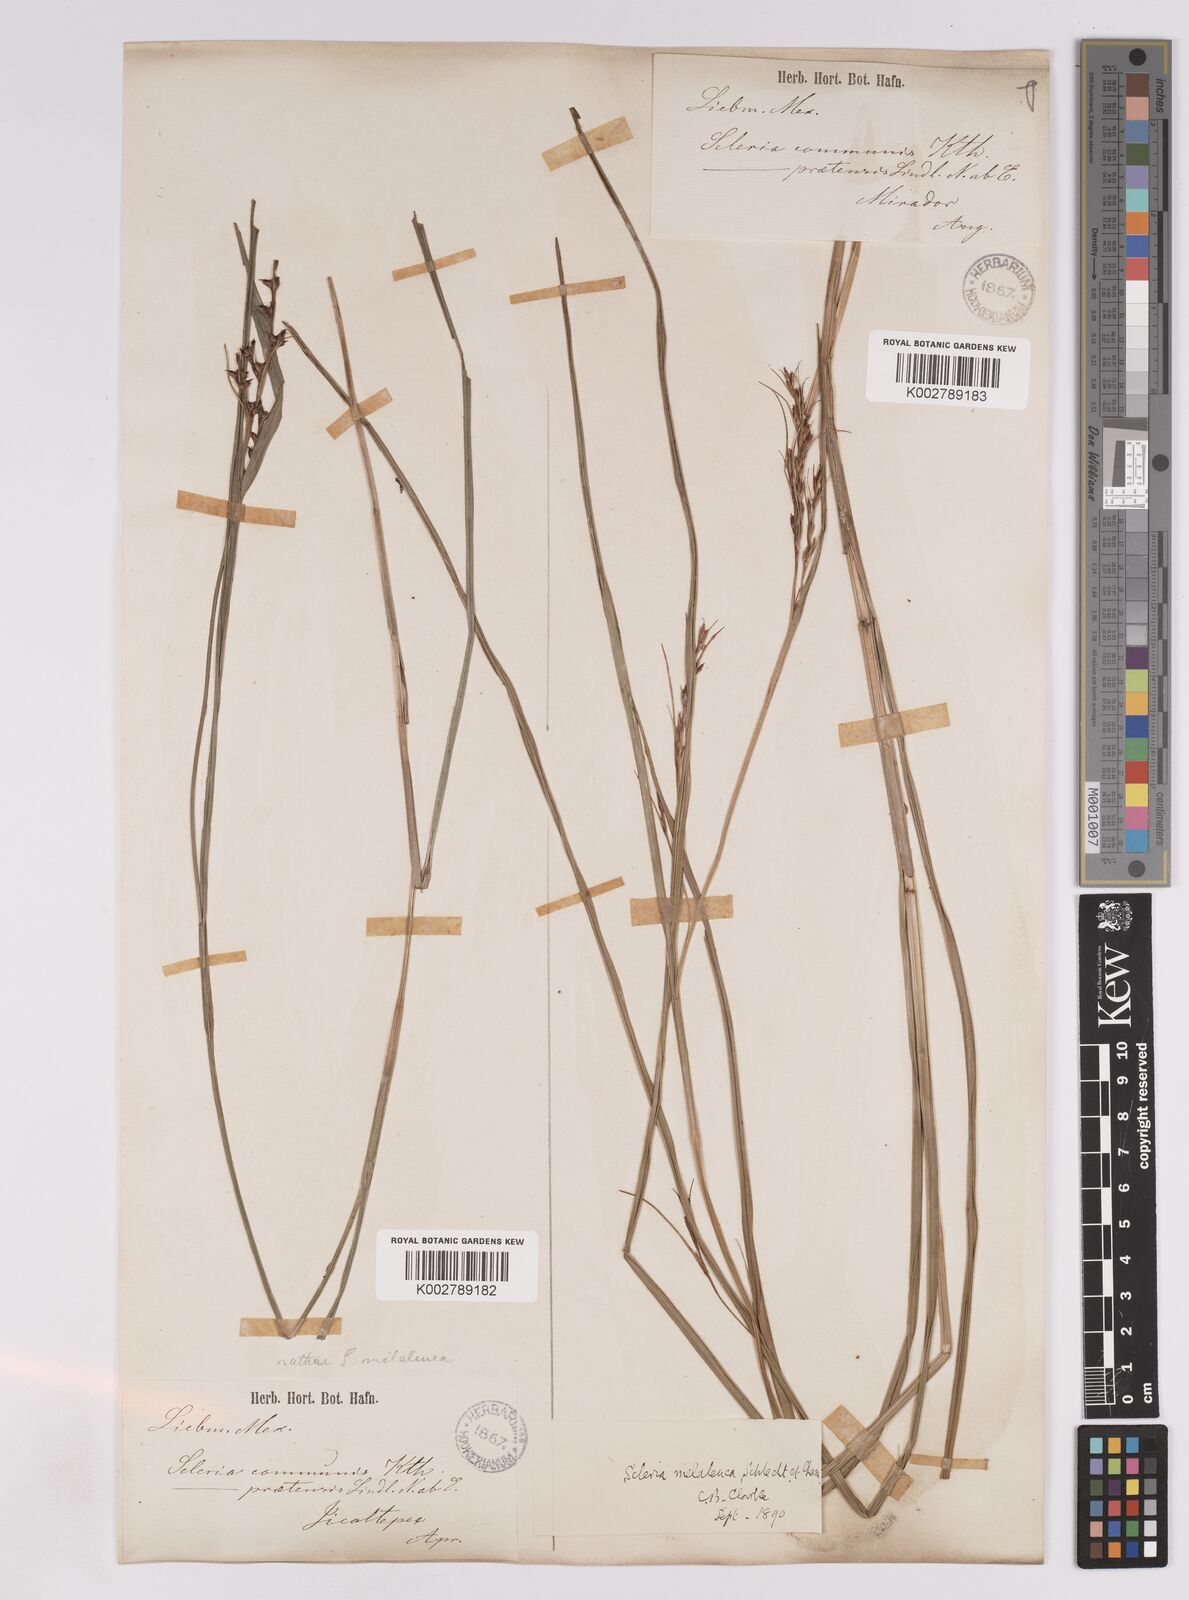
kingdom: Plantae
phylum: Tracheophyta
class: Liliopsida
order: Poales
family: Cyperaceae
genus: Scleria
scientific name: Scleria gaertneri
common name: Cortadera blanca
